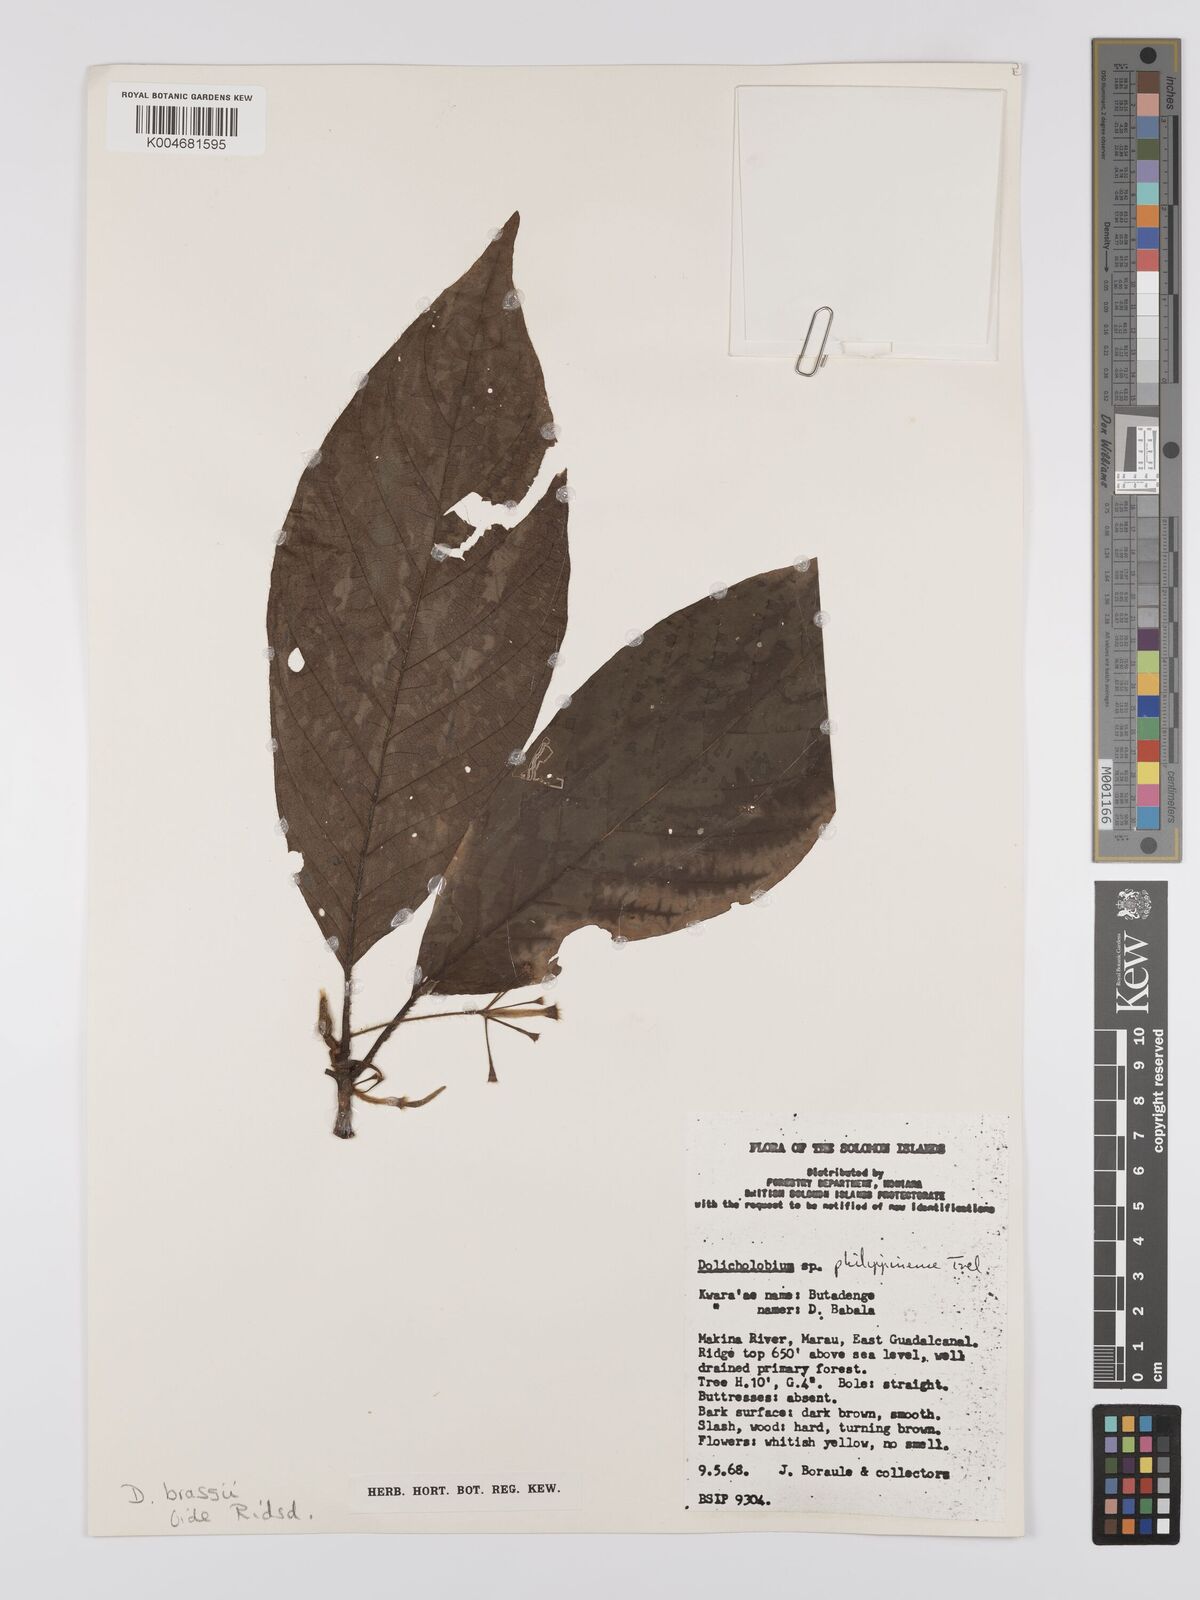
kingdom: Plantae
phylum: Tracheophyta
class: Magnoliopsida
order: Gentianales
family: Rubiaceae
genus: Dolicholobium
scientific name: Dolicholobium brassii
